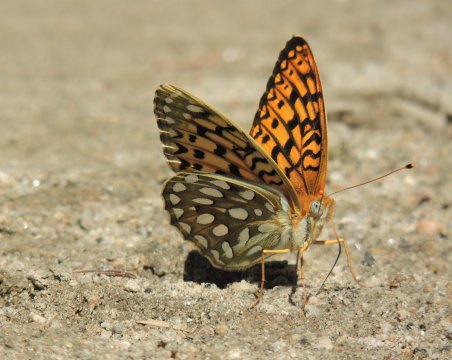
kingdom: Animalia
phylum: Arthropoda
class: Insecta
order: Lepidoptera
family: Nymphalidae
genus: Speyeria
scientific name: Speyeria callippe
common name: Callippe Fritillary
